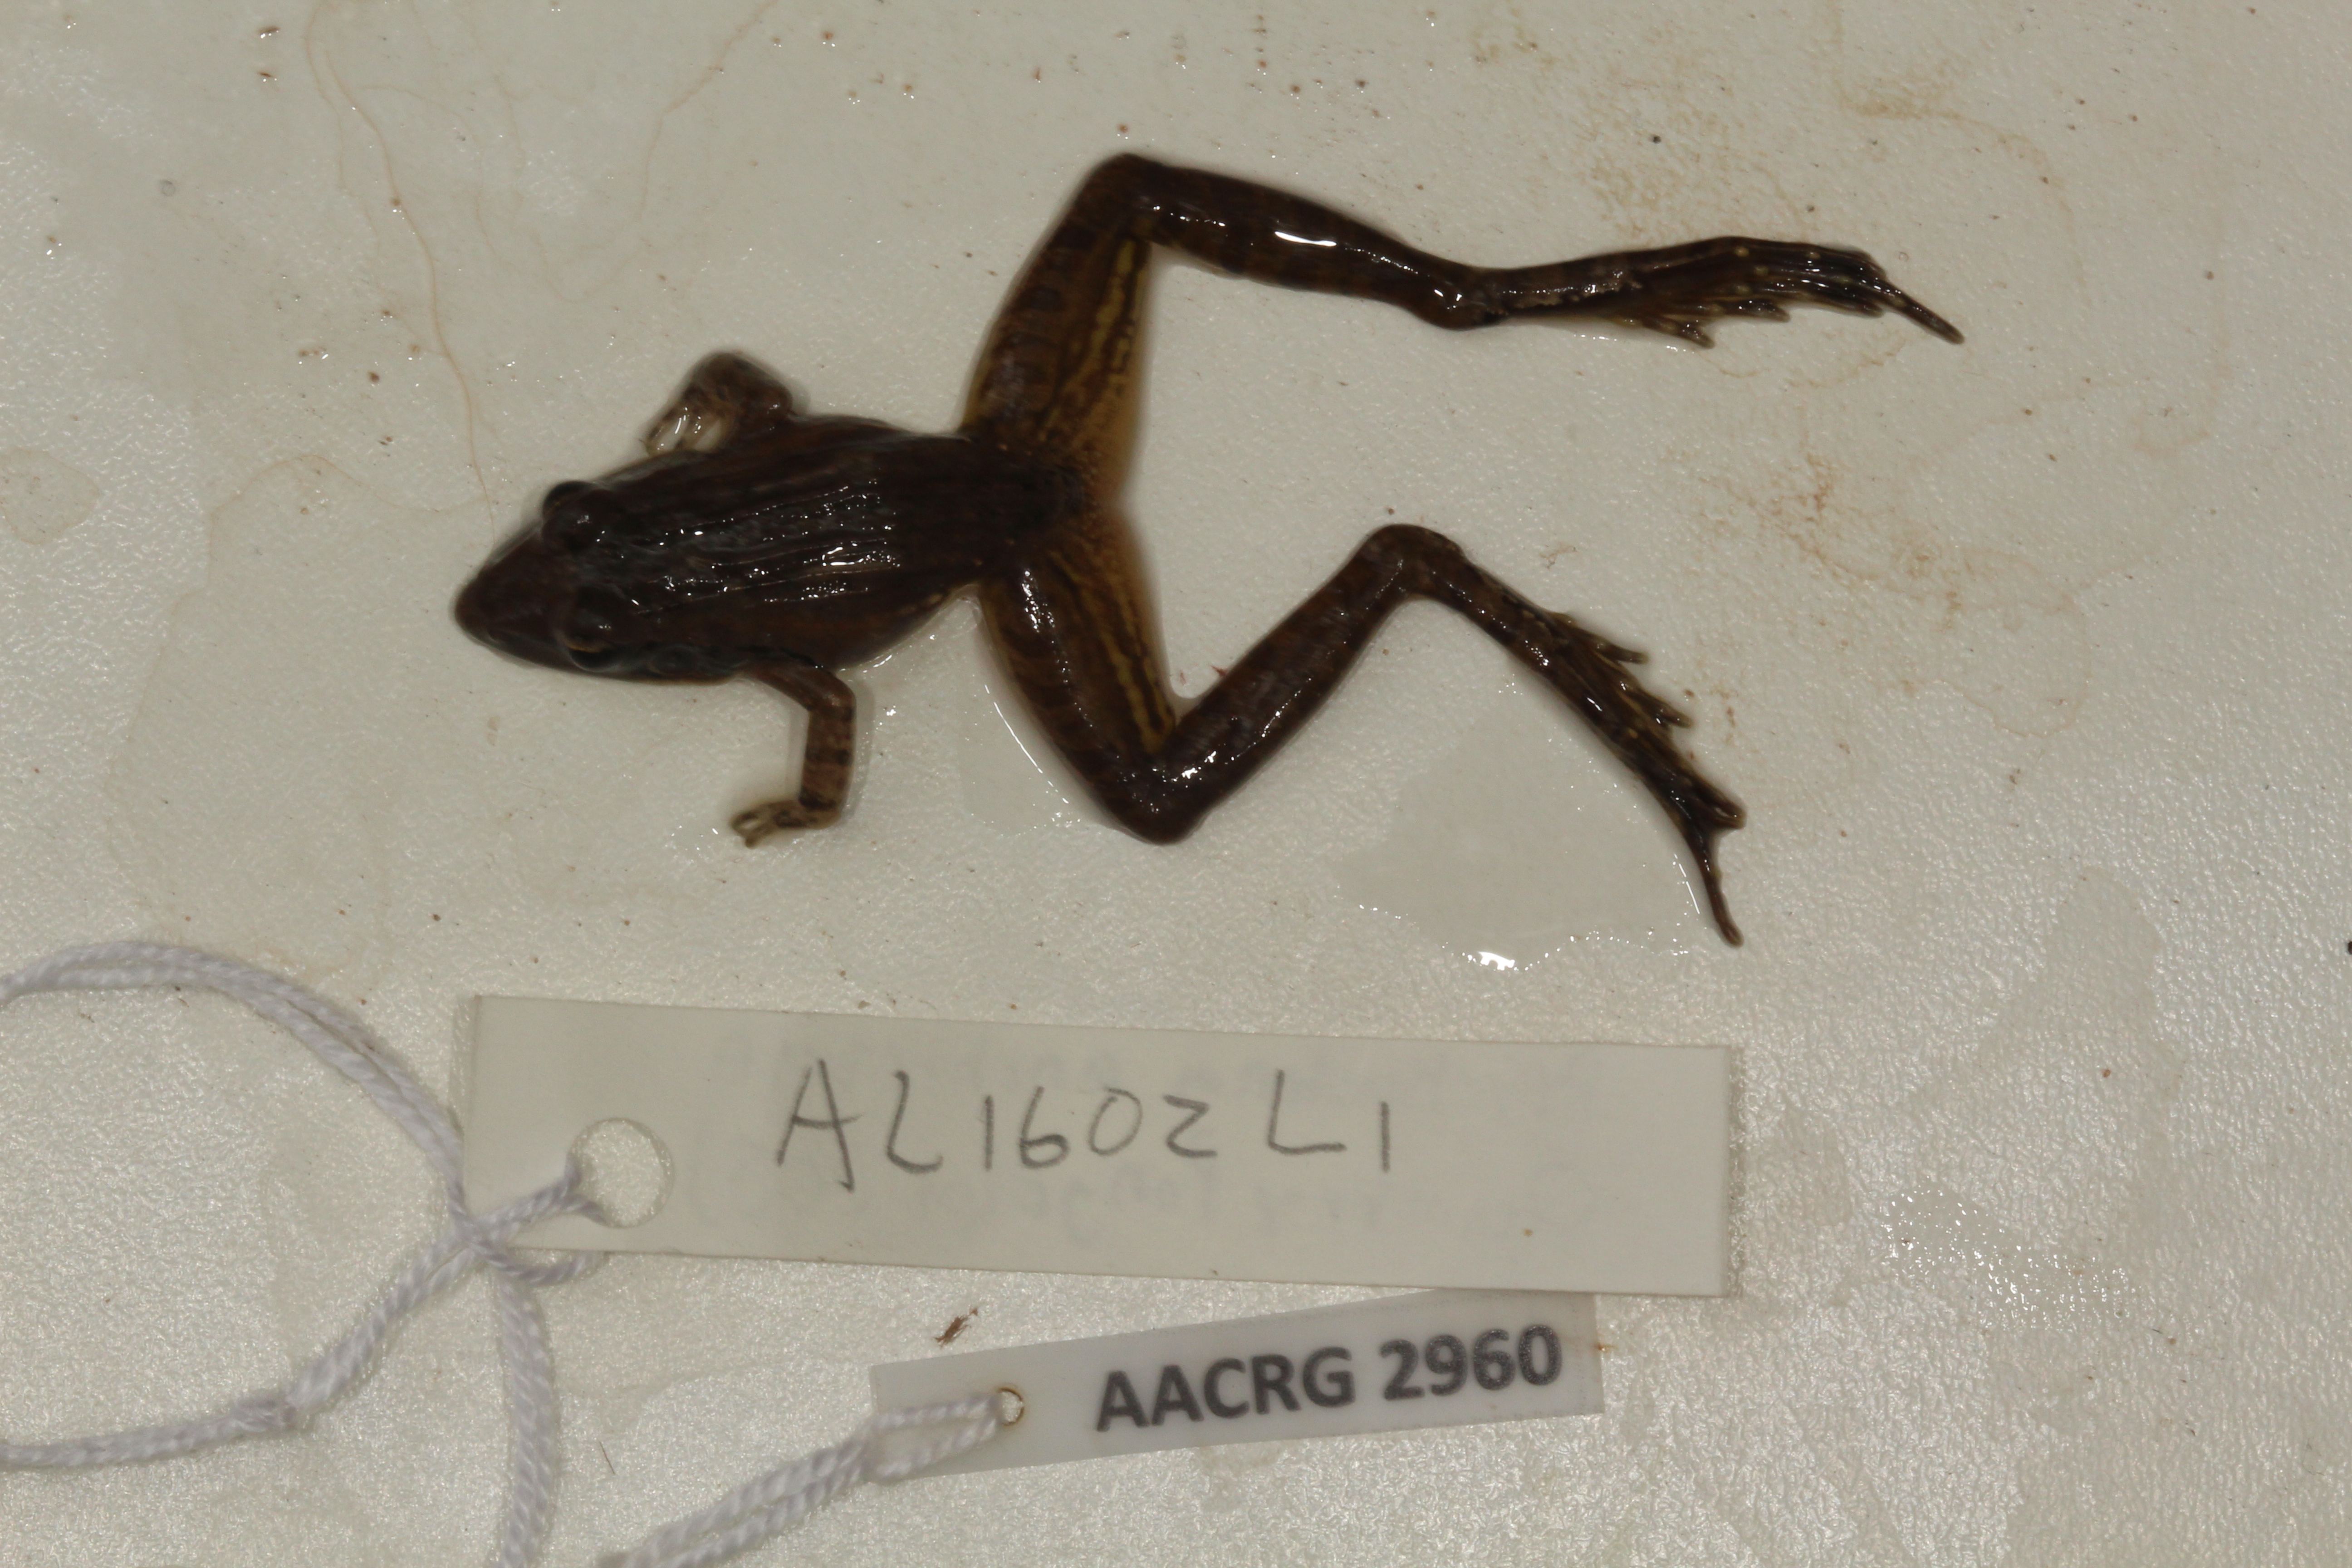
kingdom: Animalia
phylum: Chordata
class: Amphibia
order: Anura
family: Ptychadenidae
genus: Ptychadena
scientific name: Ptychadena anchietae
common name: Anchieta's ridged frog
